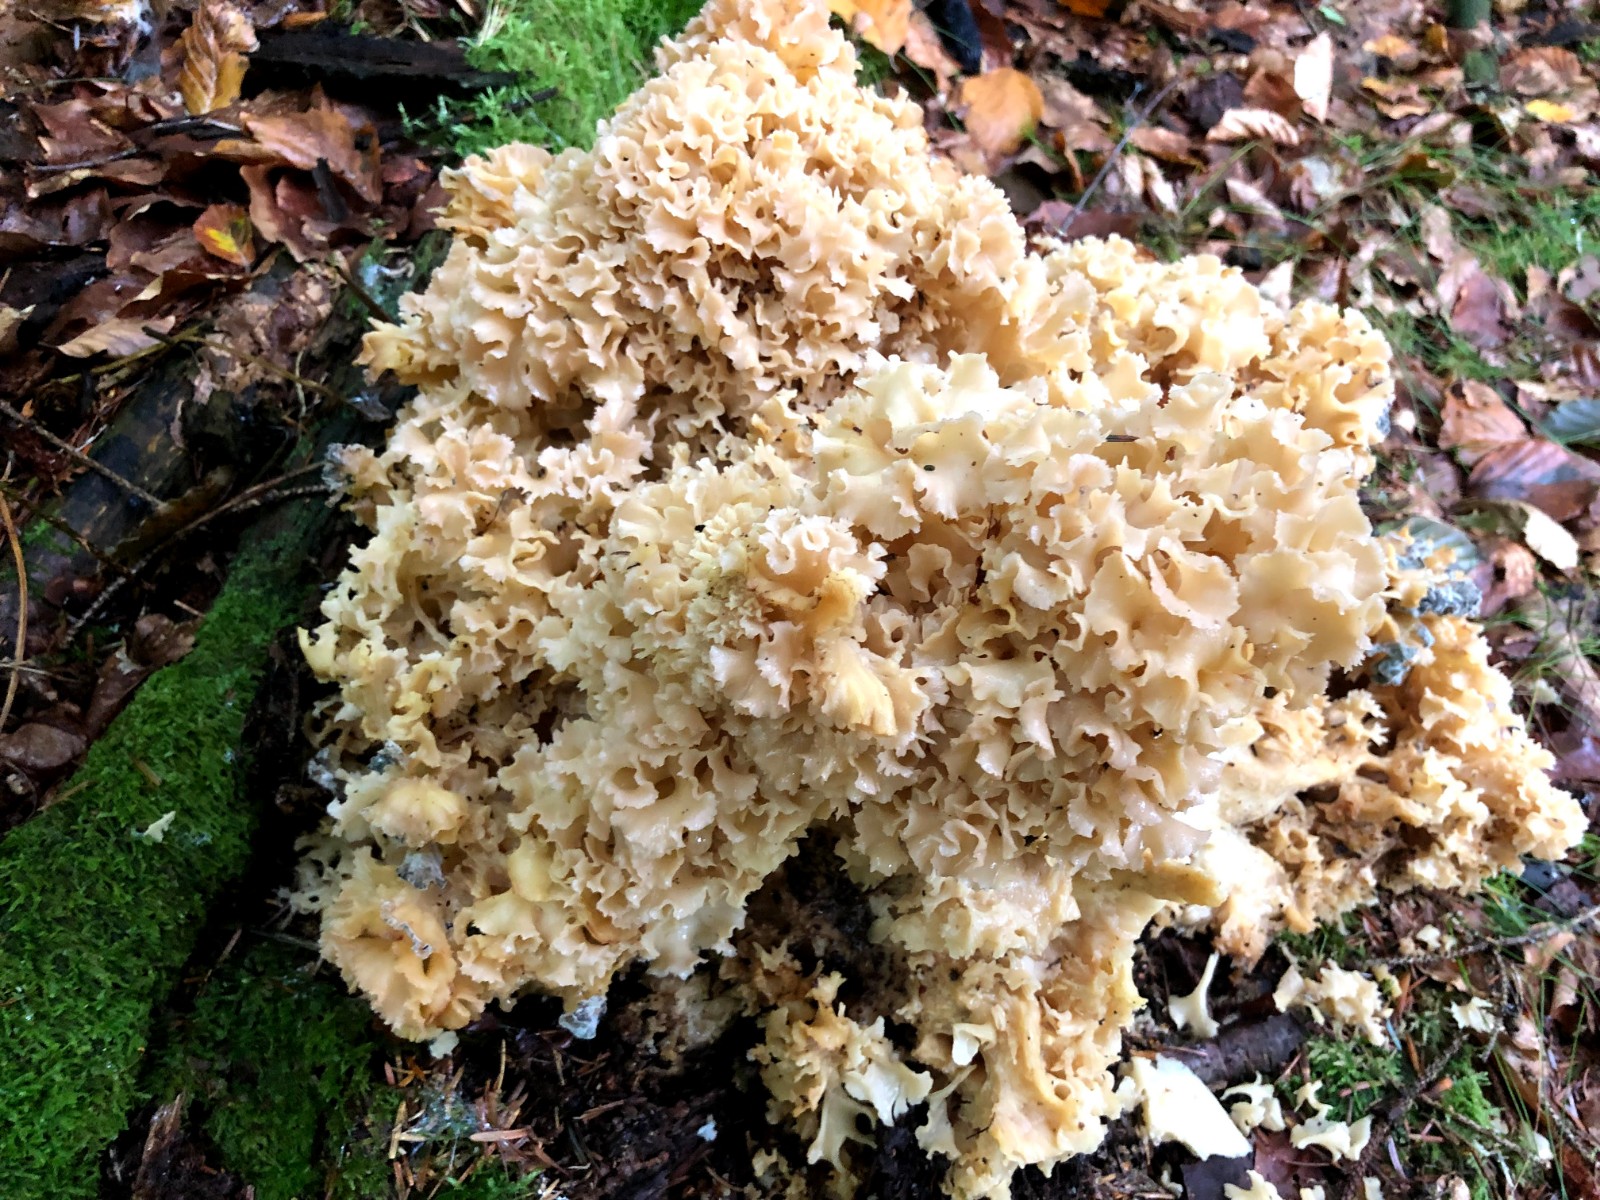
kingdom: Fungi
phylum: Basidiomycota
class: Agaricomycetes
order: Polyporales
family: Sparassidaceae
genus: Sparassis
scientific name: Sparassis crispa
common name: kruset blomkålssvamp
